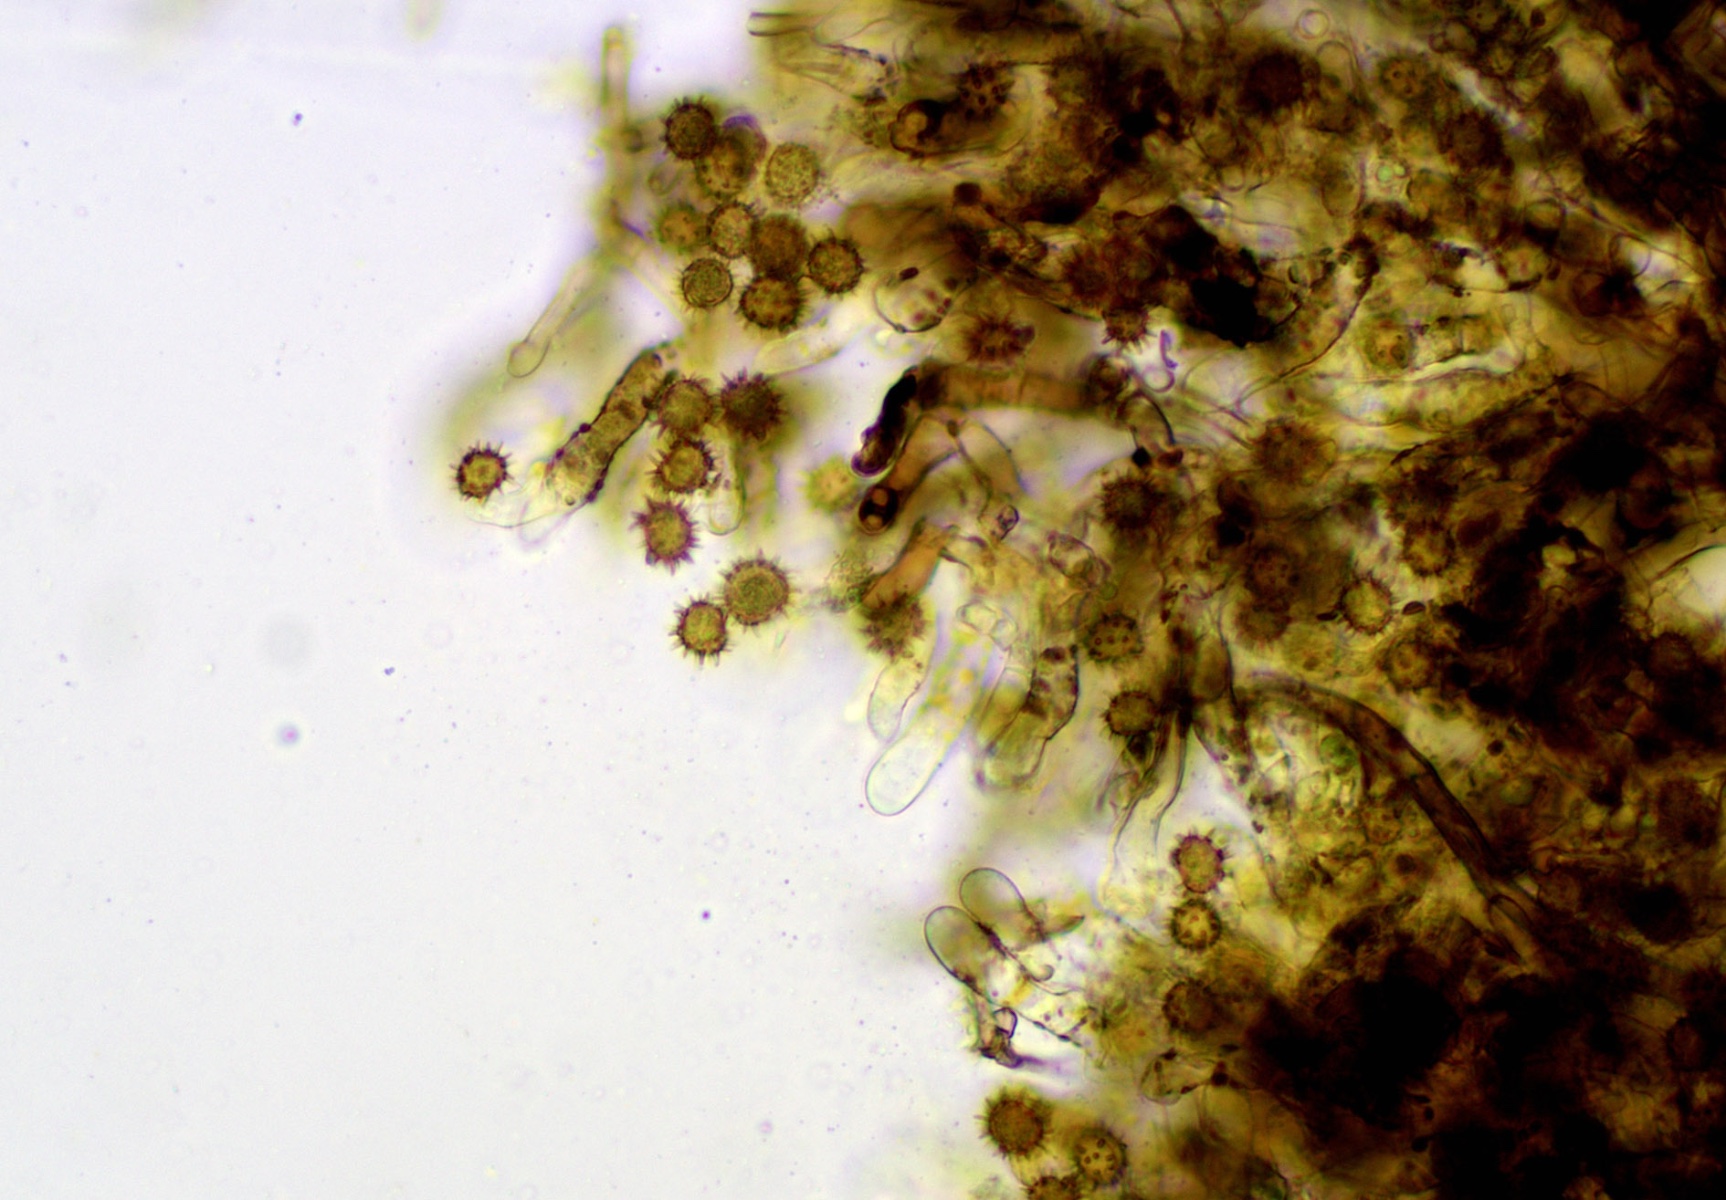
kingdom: Fungi
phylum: Basidiomycota
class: Agaricomycetes
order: Thelephorales
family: Thelephoraceae
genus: Tomentella
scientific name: Tomentella bryophila
